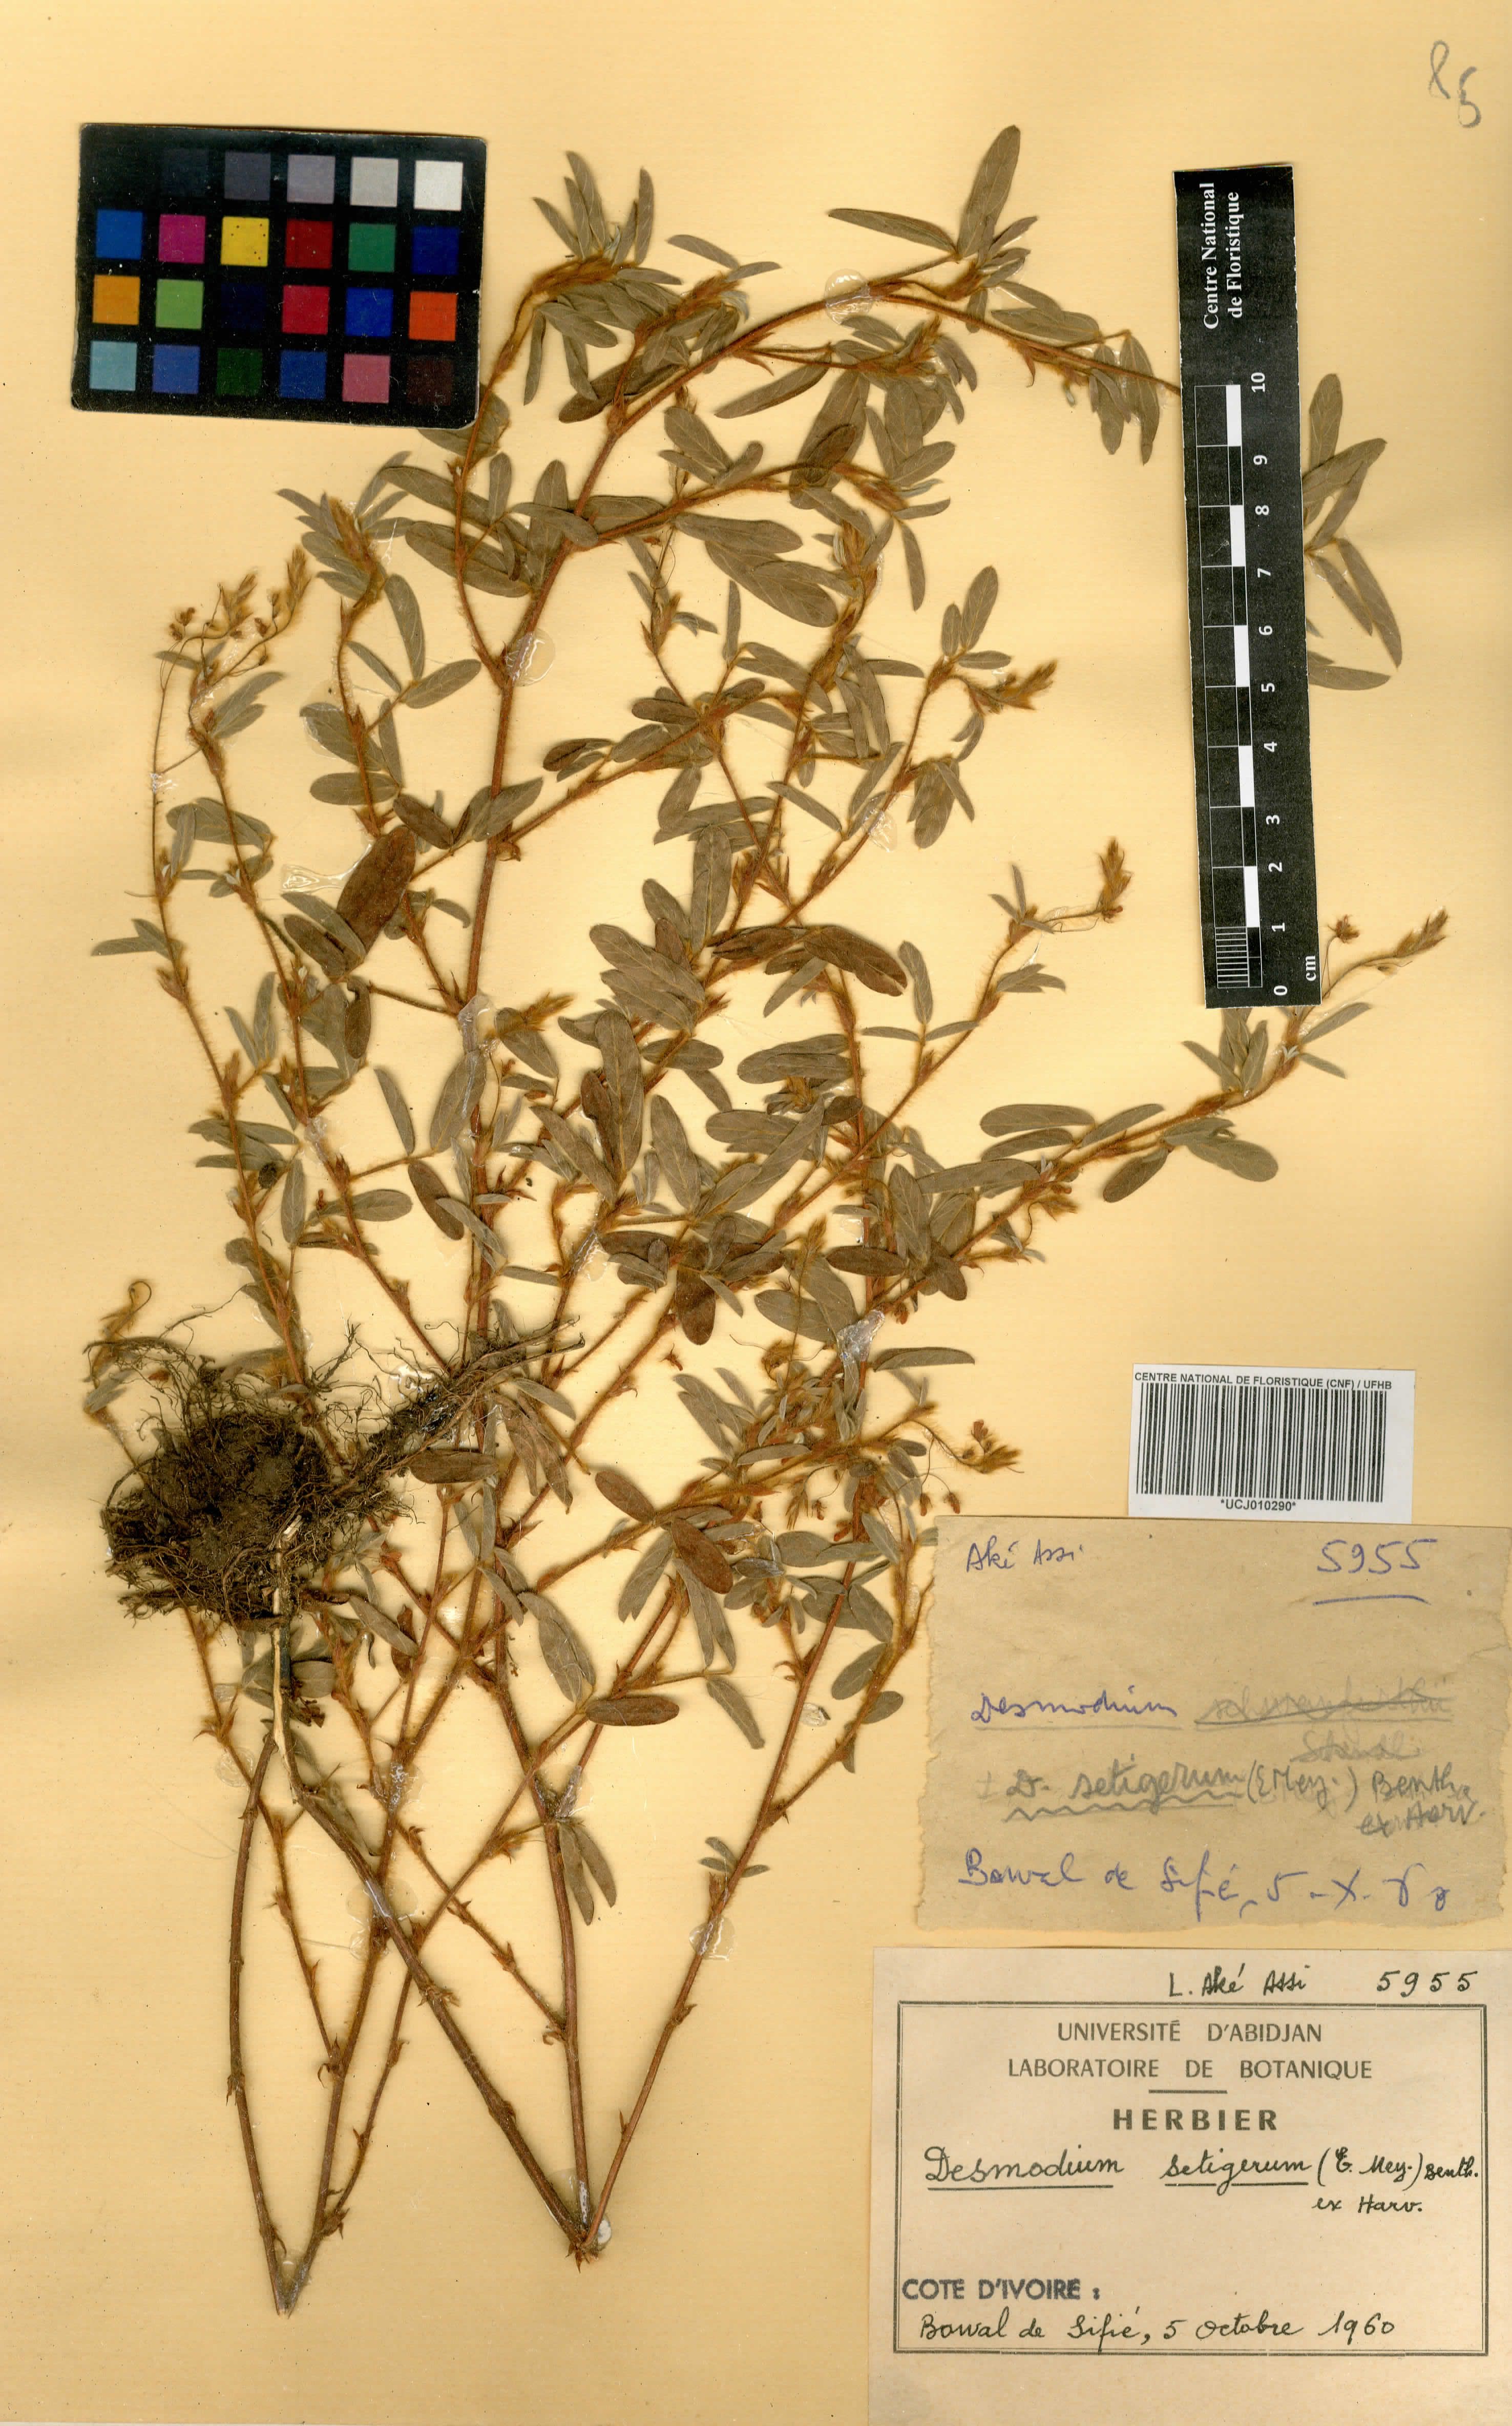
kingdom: Plantae
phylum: Tracheophyta
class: Magnoliopsida
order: Fabales
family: Fabaceae
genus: Grona
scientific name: Grona setigera
